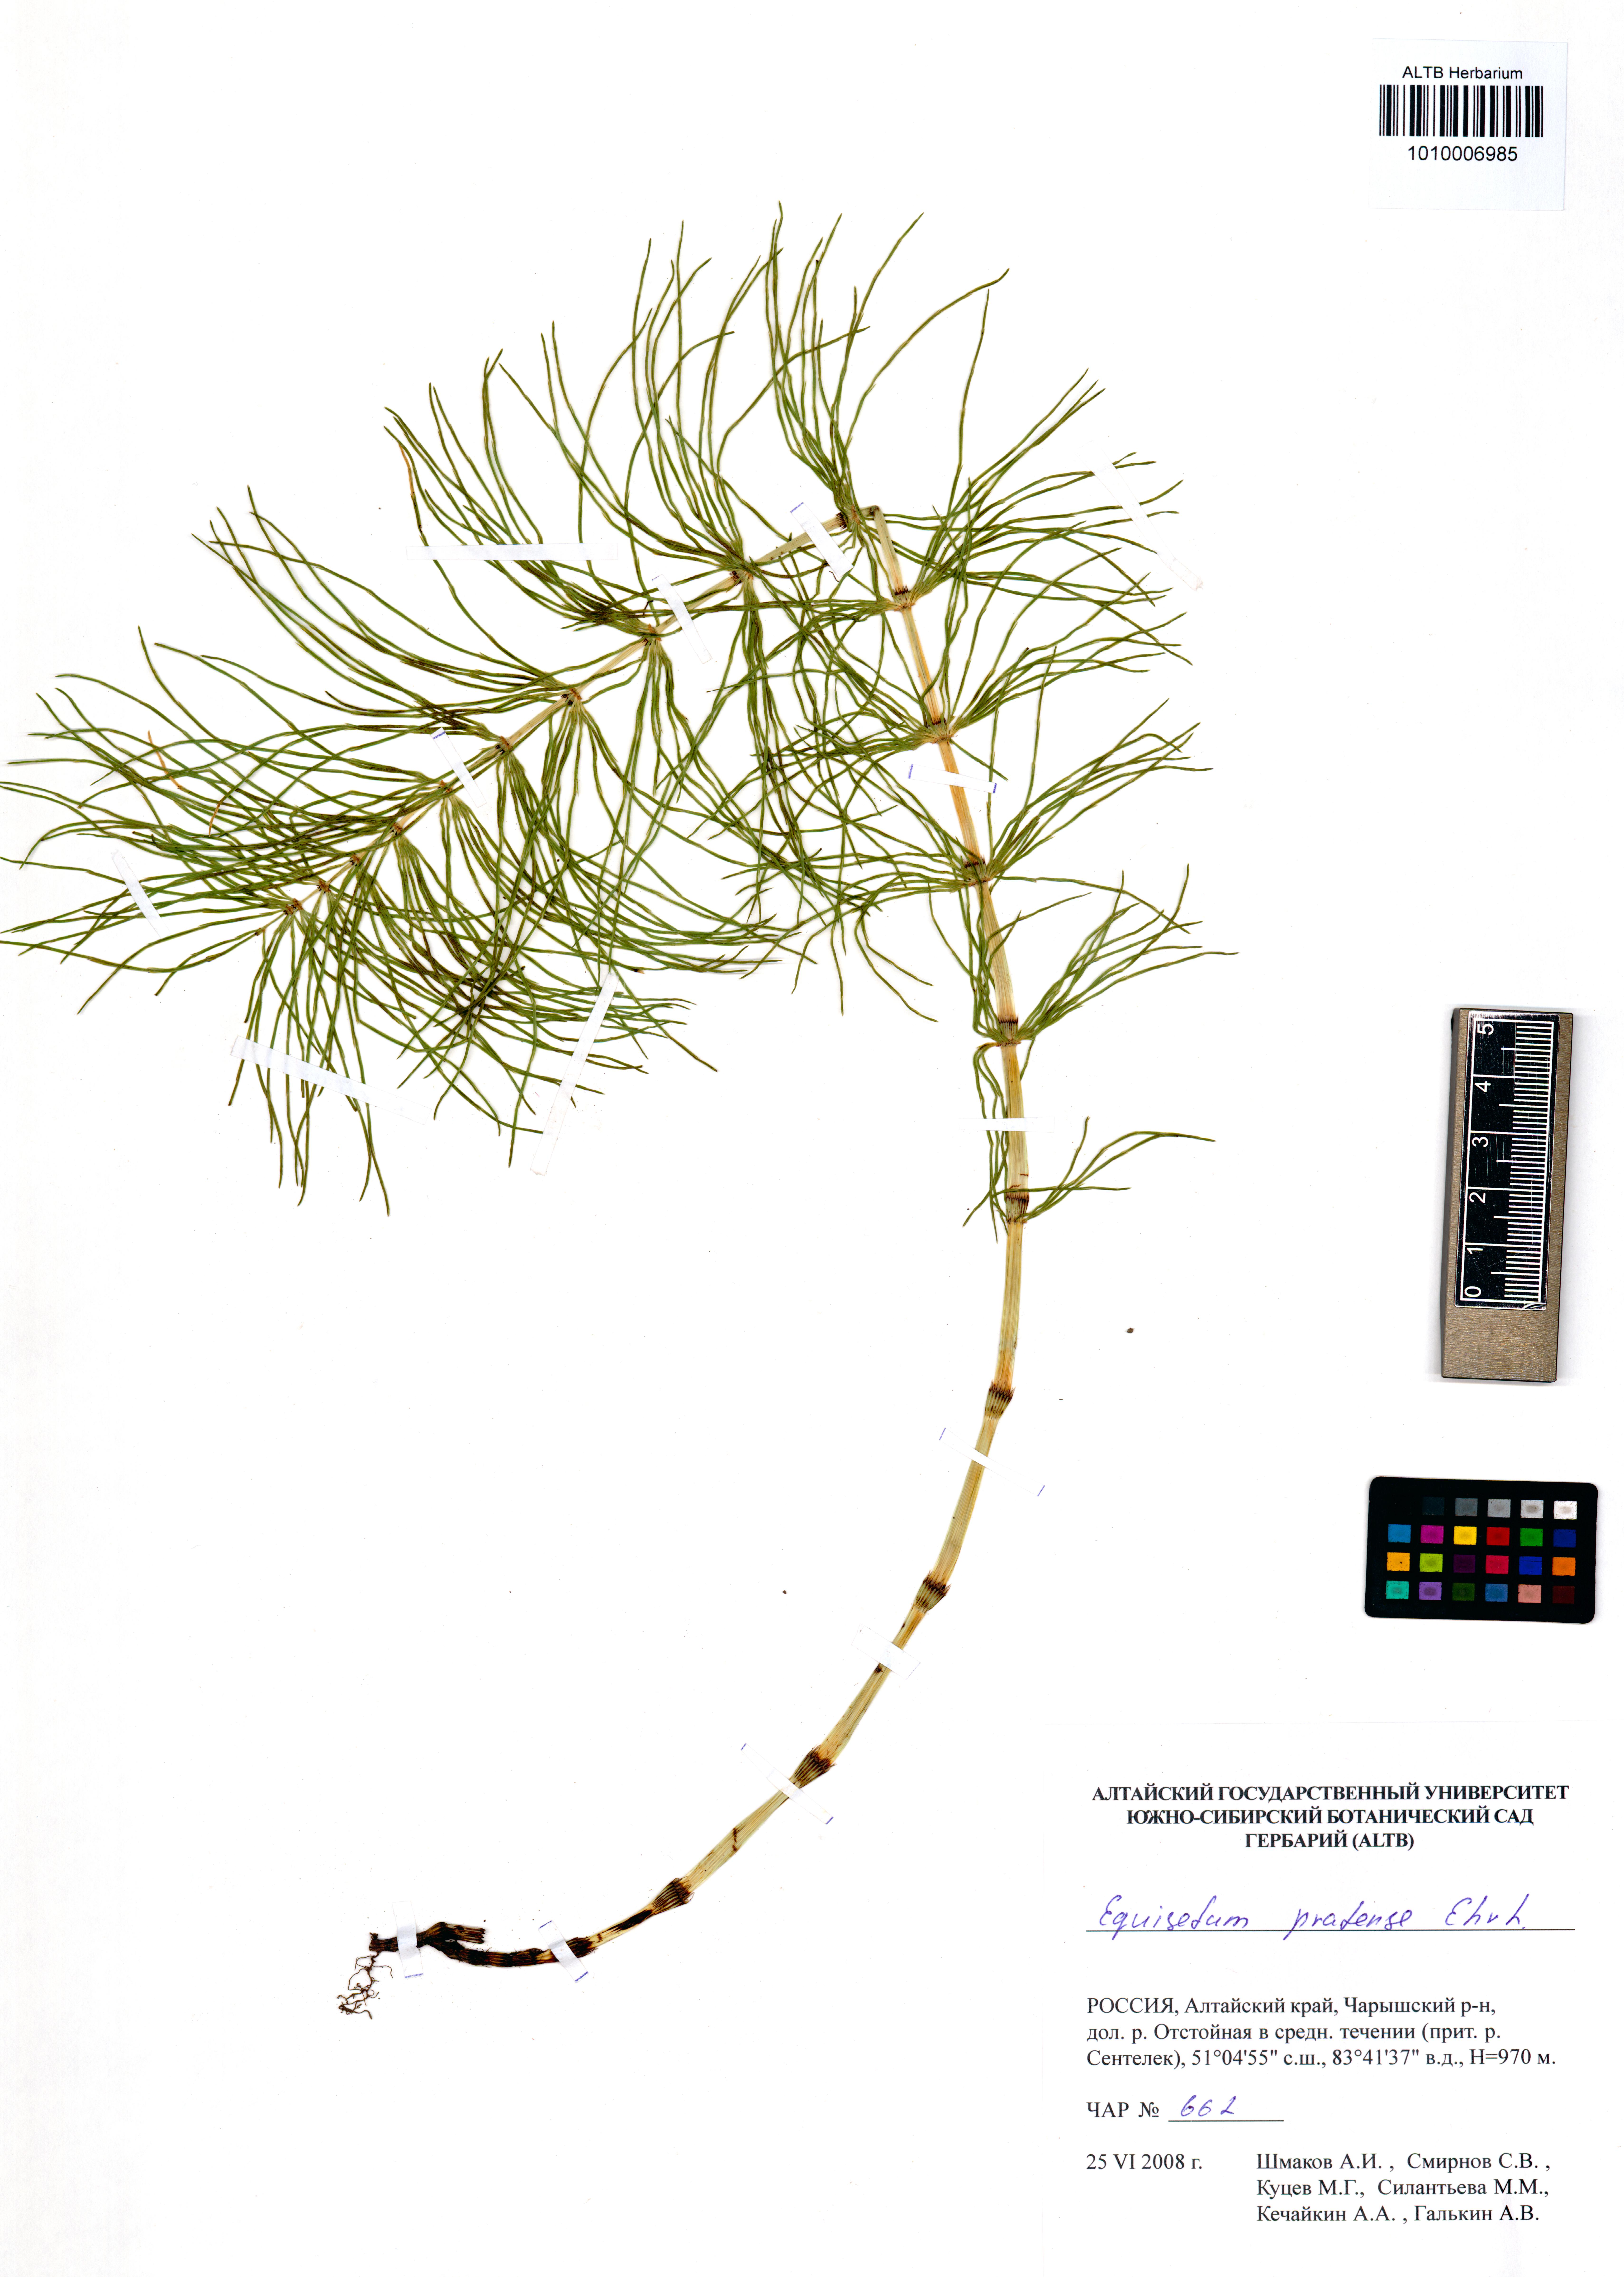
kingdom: Plantae
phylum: Tracheophyta
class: Polypodiopsida
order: Equisetales
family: Equisetaceae
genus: Equisetum
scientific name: Equisetum pratense
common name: Meadow horsetail
